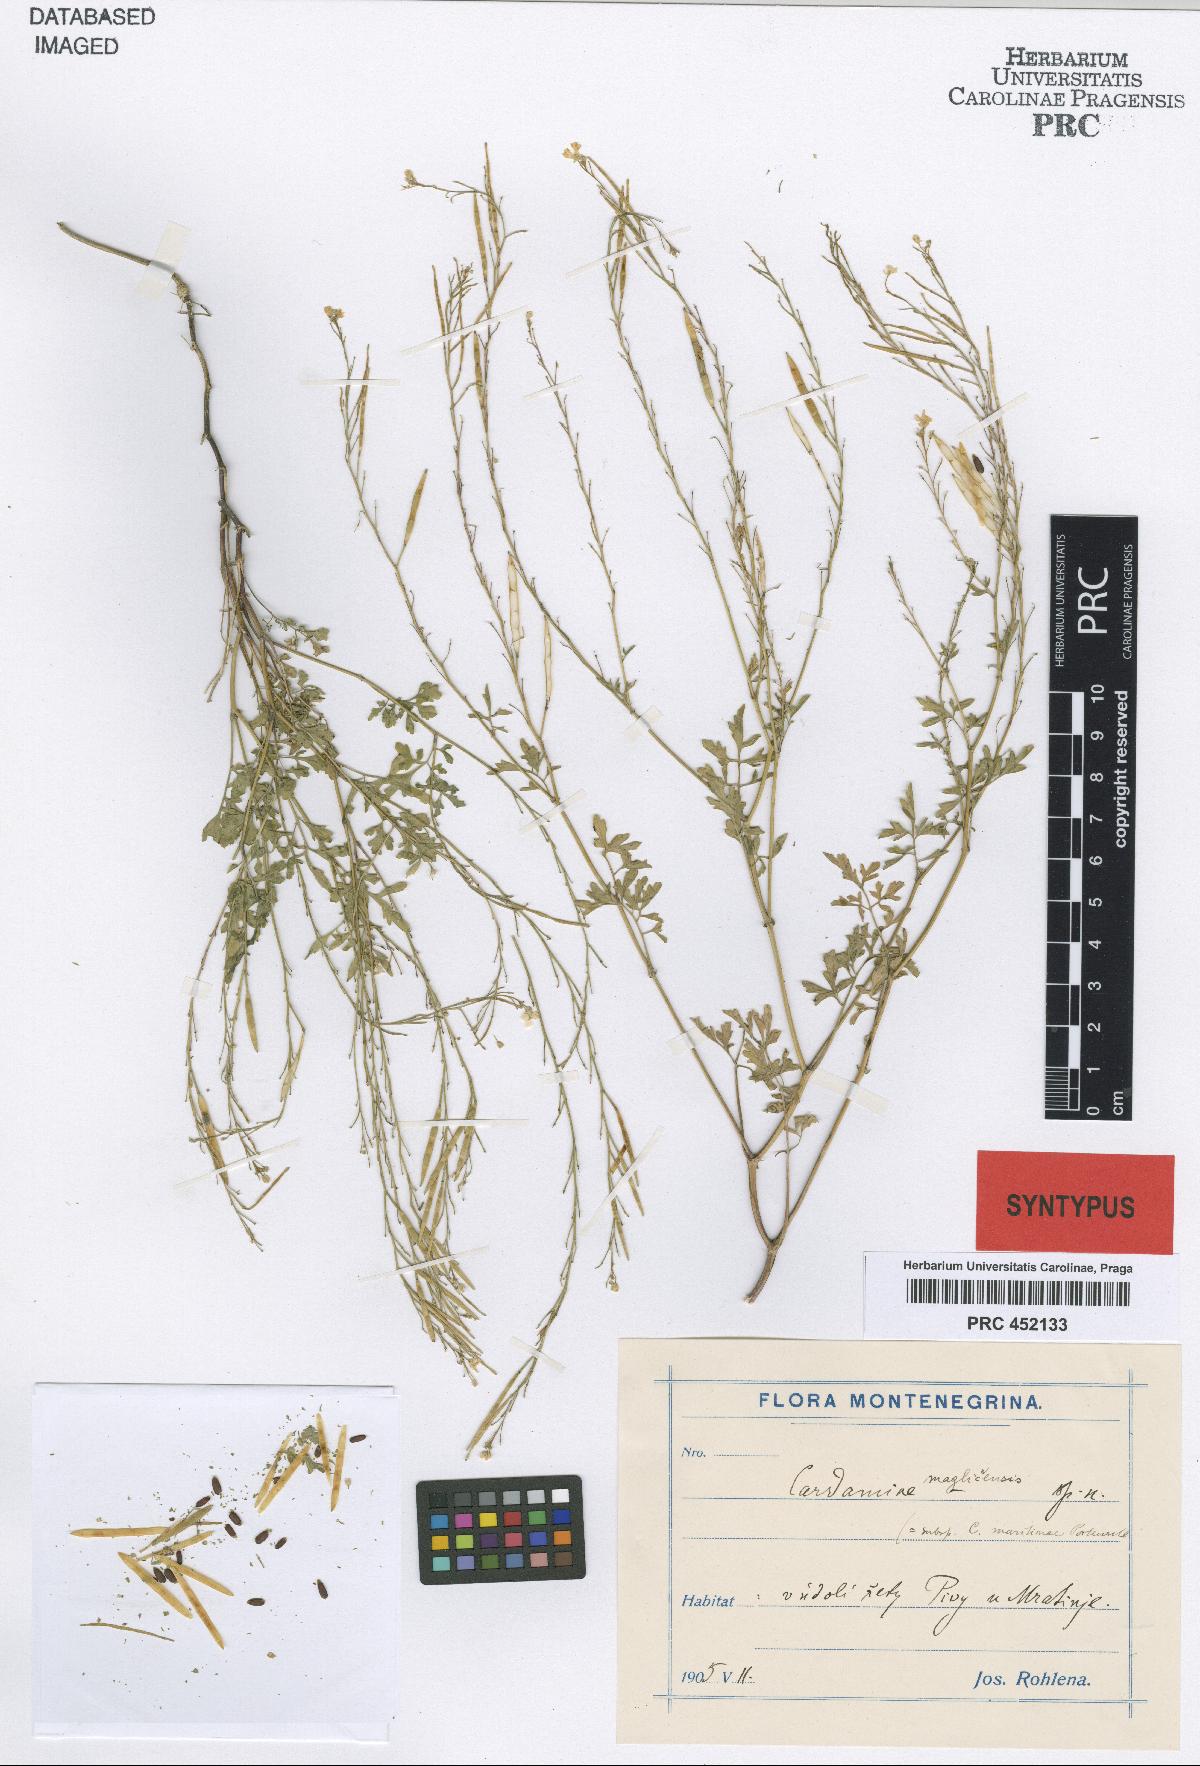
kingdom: Plantae
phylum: Tracheophyta
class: Magnoliopsida
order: Brassicales
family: Brassicaceae
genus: Cardamine
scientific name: Cardamine maglicensis
